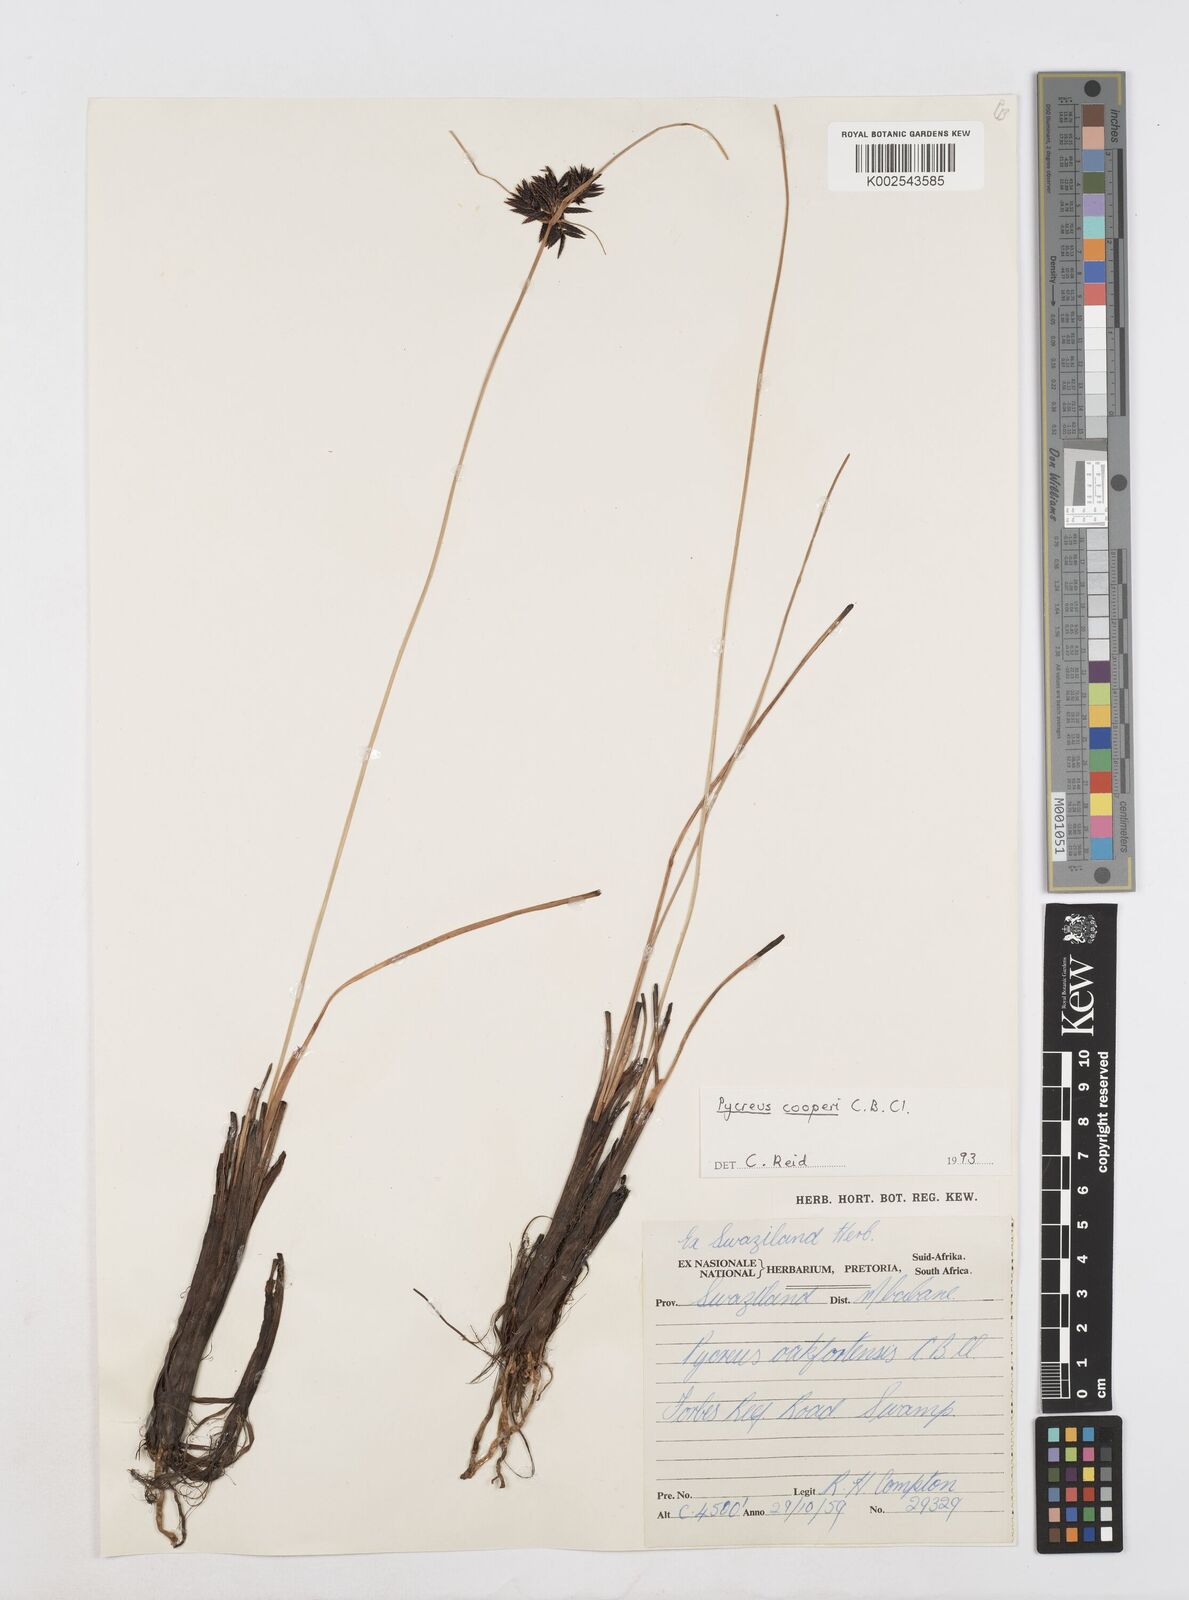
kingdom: Plantae
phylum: Tracheophyta
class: Liliopsida
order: Poales
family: Cyperaceae
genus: Cyperus
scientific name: Cyperus
